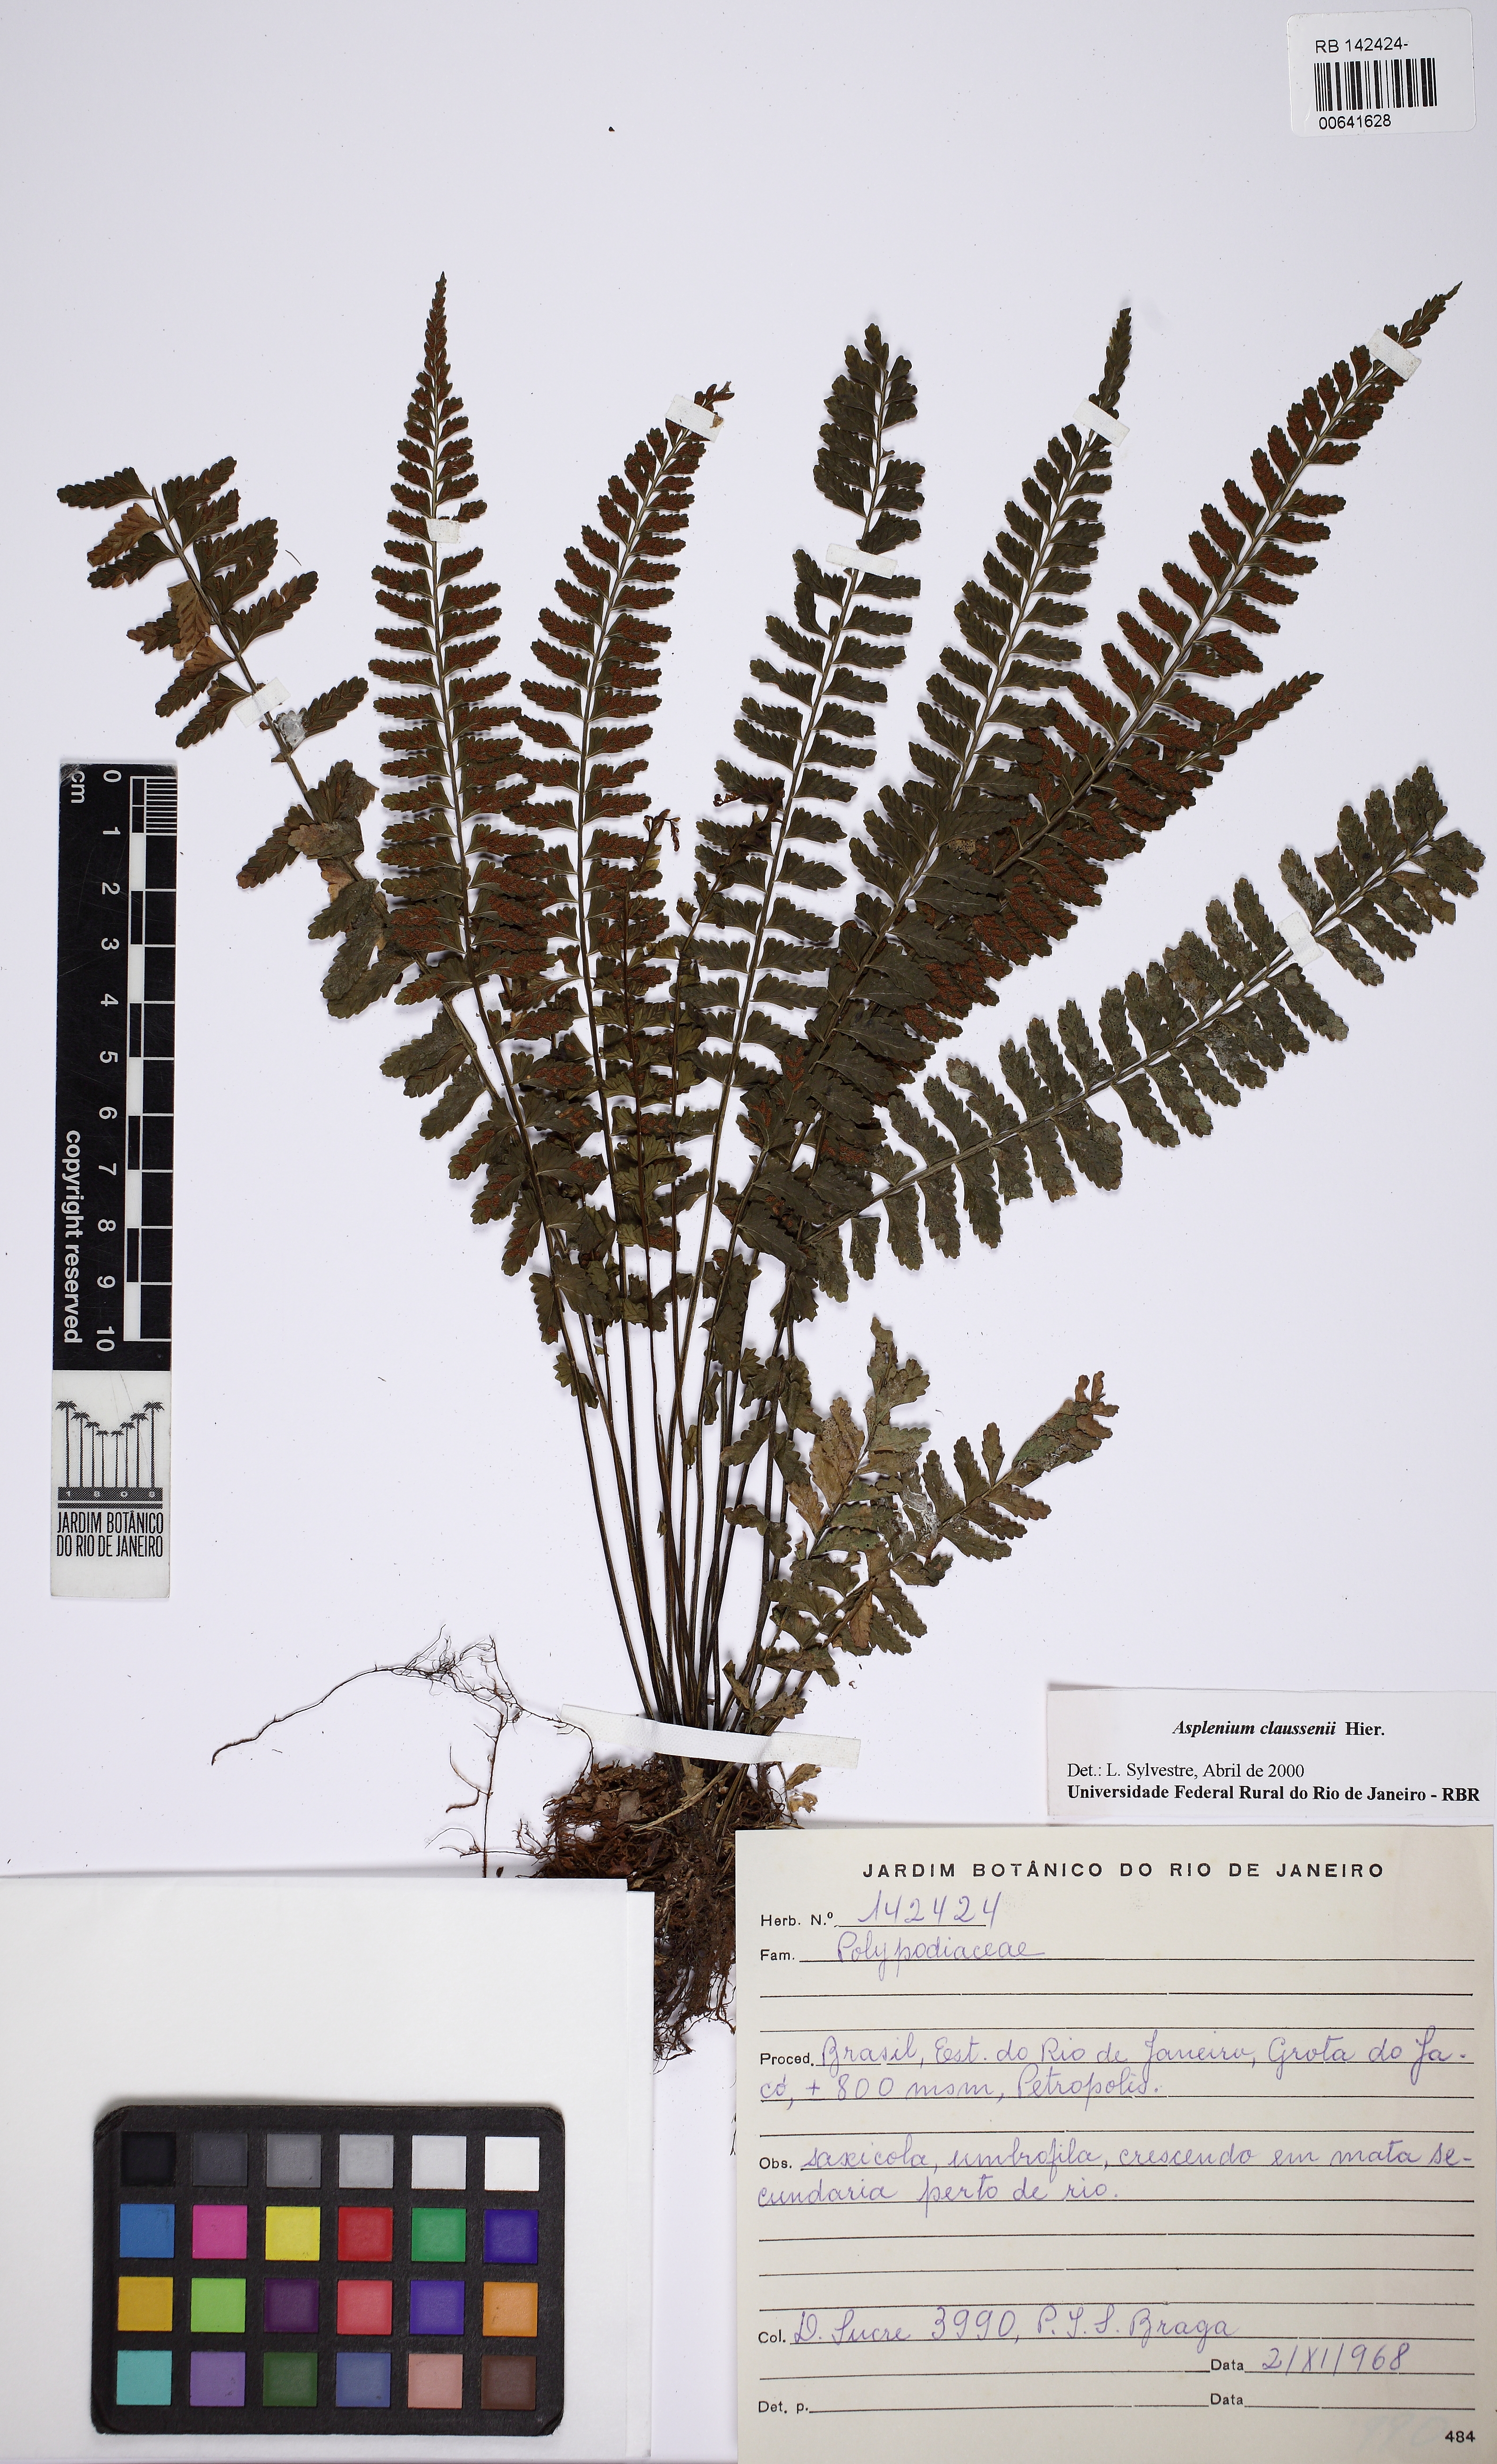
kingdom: Plantae
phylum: Tracheophyta
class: Polypodiopsida
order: Polypodiales
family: Aspleniaceae
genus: Asplenium
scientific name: Asplenium mourai
